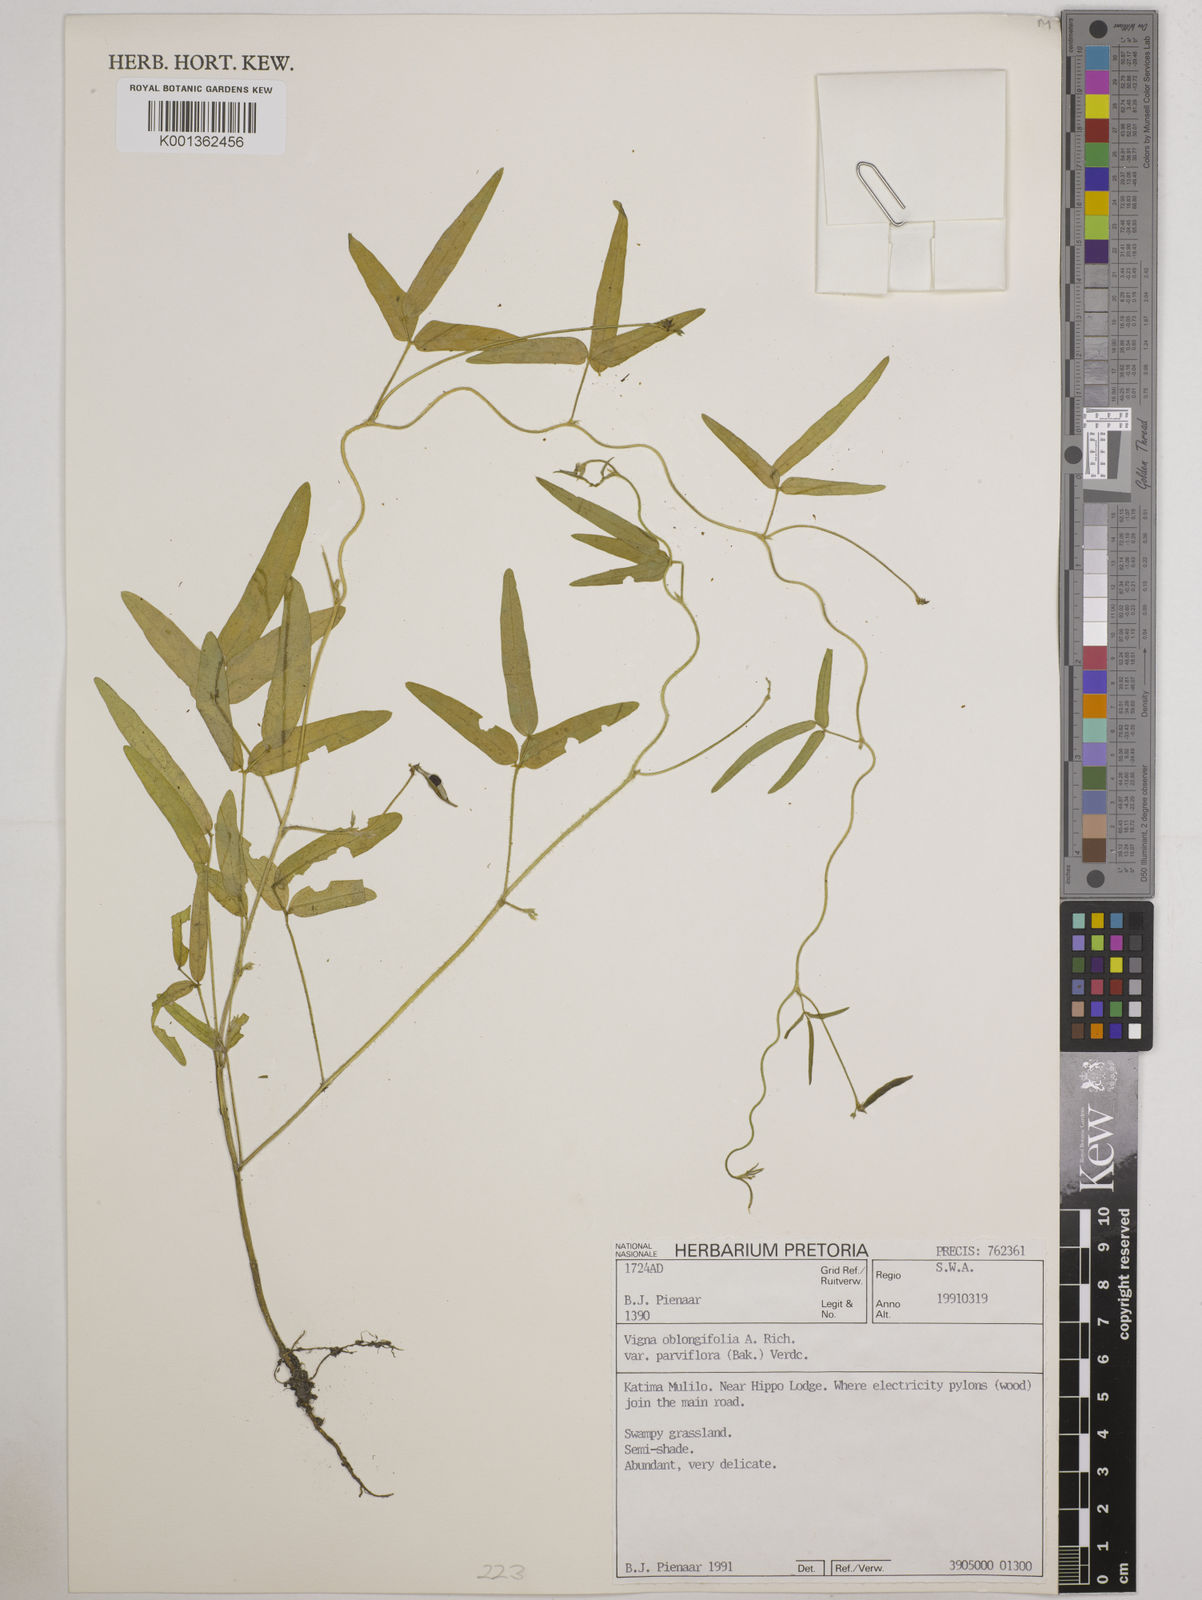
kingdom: Plantae
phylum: Tracheophyta
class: Magnoliopsida
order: Fabales
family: Fabaceae
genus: Vigna
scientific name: Vigna
